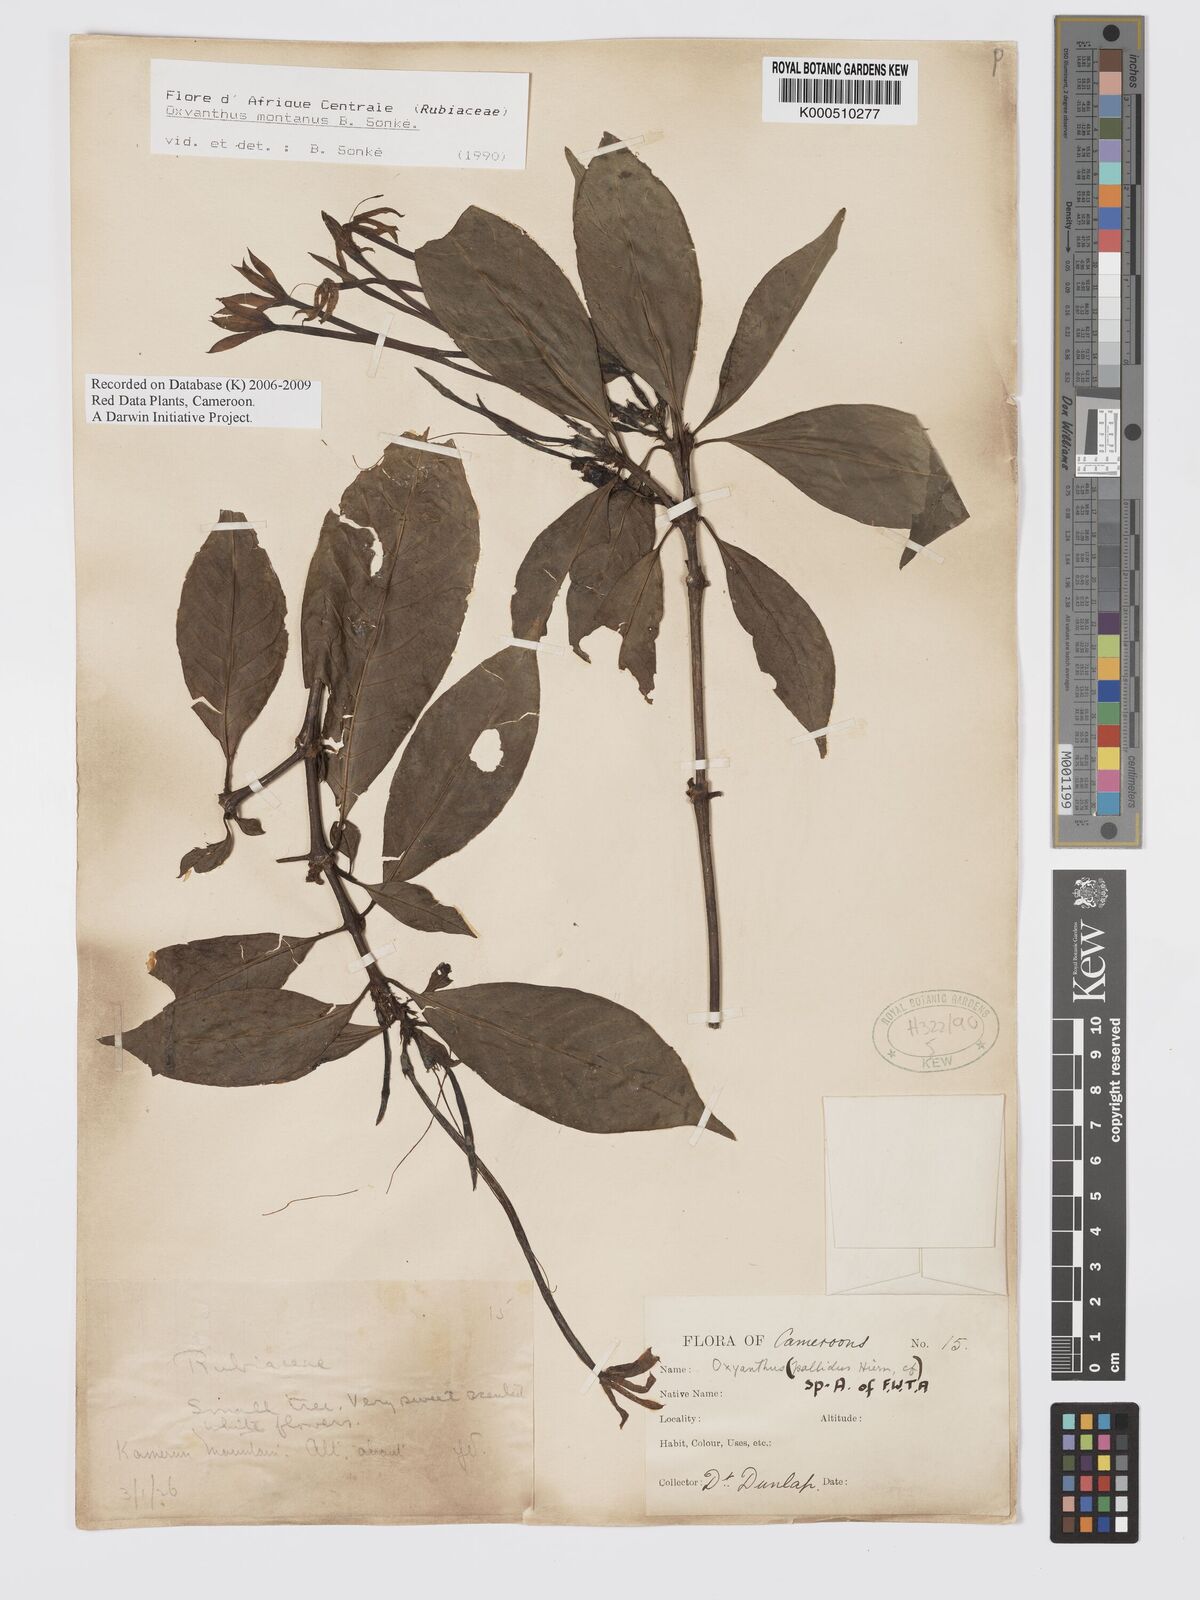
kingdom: Plantae
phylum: Tracheophyta
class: Magnoliopsida
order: Gentianales
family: Rubiaceae
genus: Oxyanthus
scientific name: Oxyanthus
